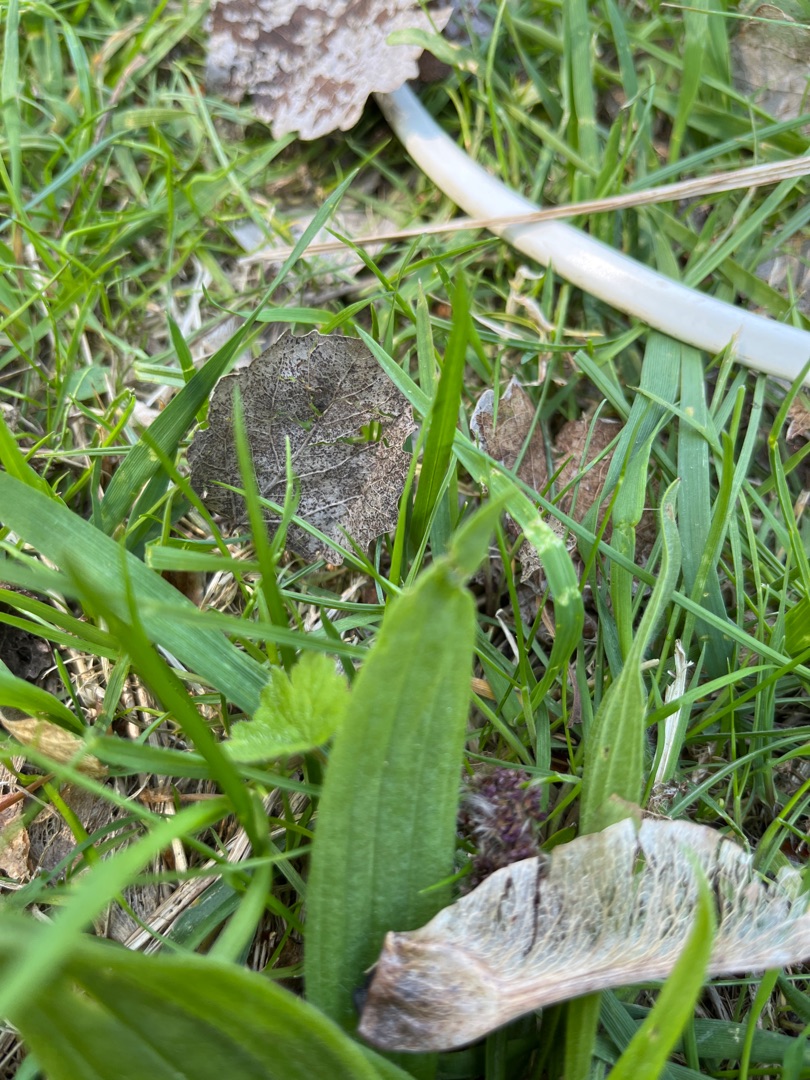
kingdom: Plantae
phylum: Tracheophyta
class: Magnoliopsida
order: Lamiales
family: Plantaginaceae
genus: Plantago
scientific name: Plantago lanceolata
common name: Lancet-vejbred
